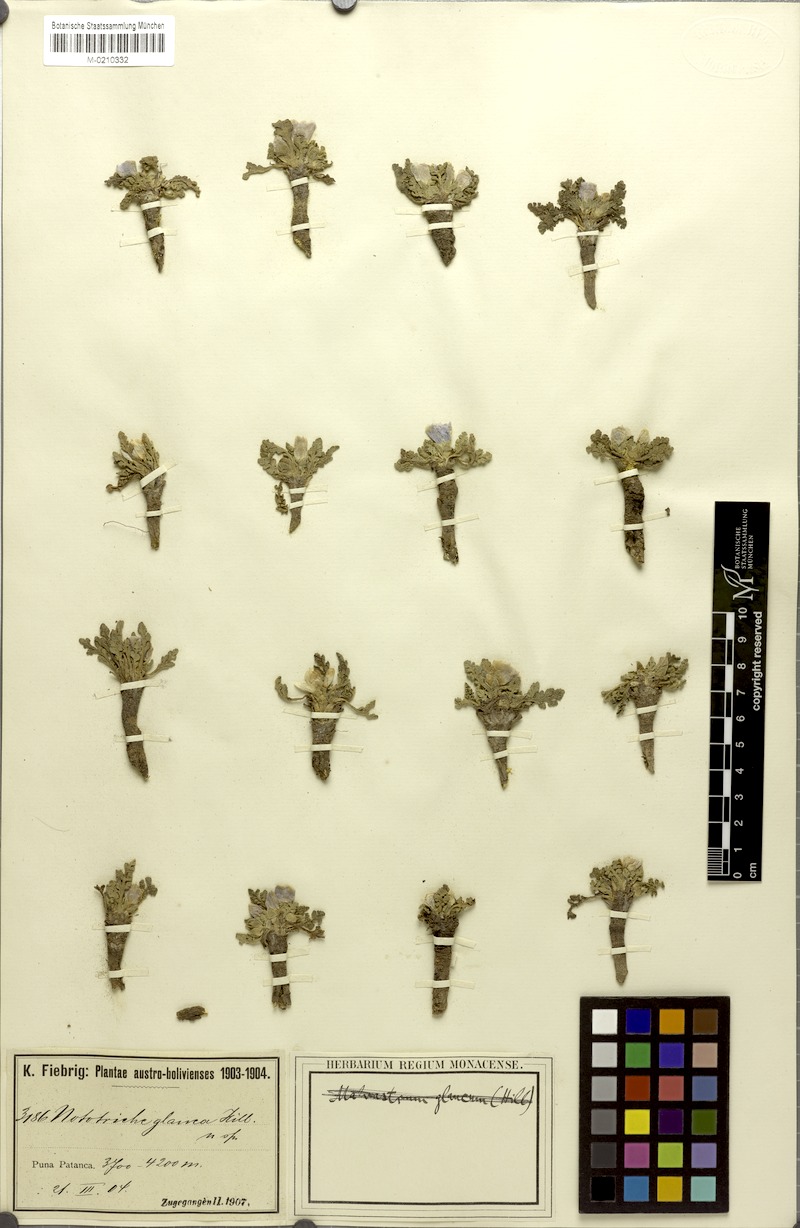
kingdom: Plantae
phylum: Tracheophyta
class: Magnoliopsida
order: Malvales
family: Malvaceae
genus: Nototriche
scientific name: Nototriche glauca
